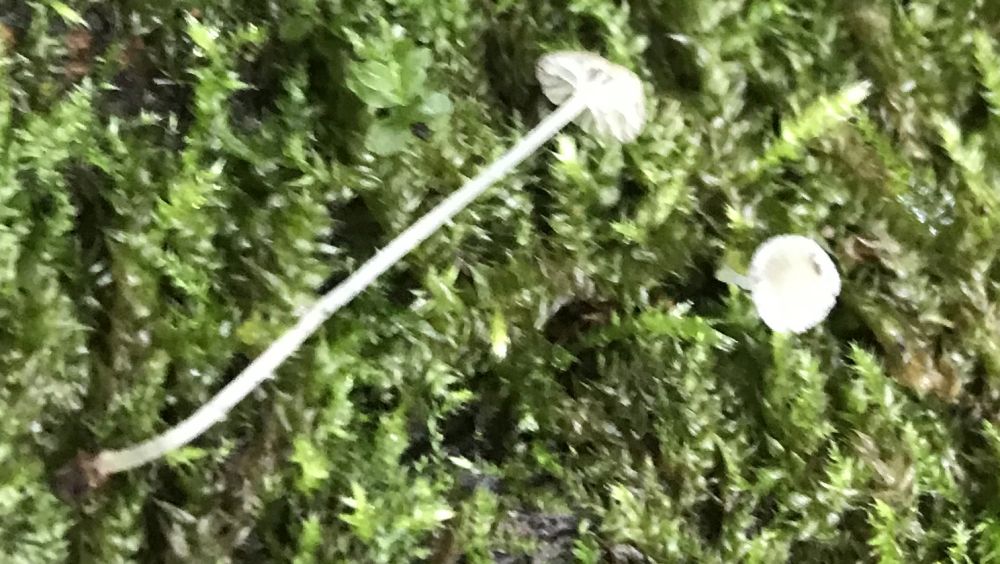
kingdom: Fungi
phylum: Basidiomycota
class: Agaricomycetes
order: Agaricales
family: Porotheleaceae
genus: Phloeomana
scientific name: Phloeomana speirea
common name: kvist-huesvamp
